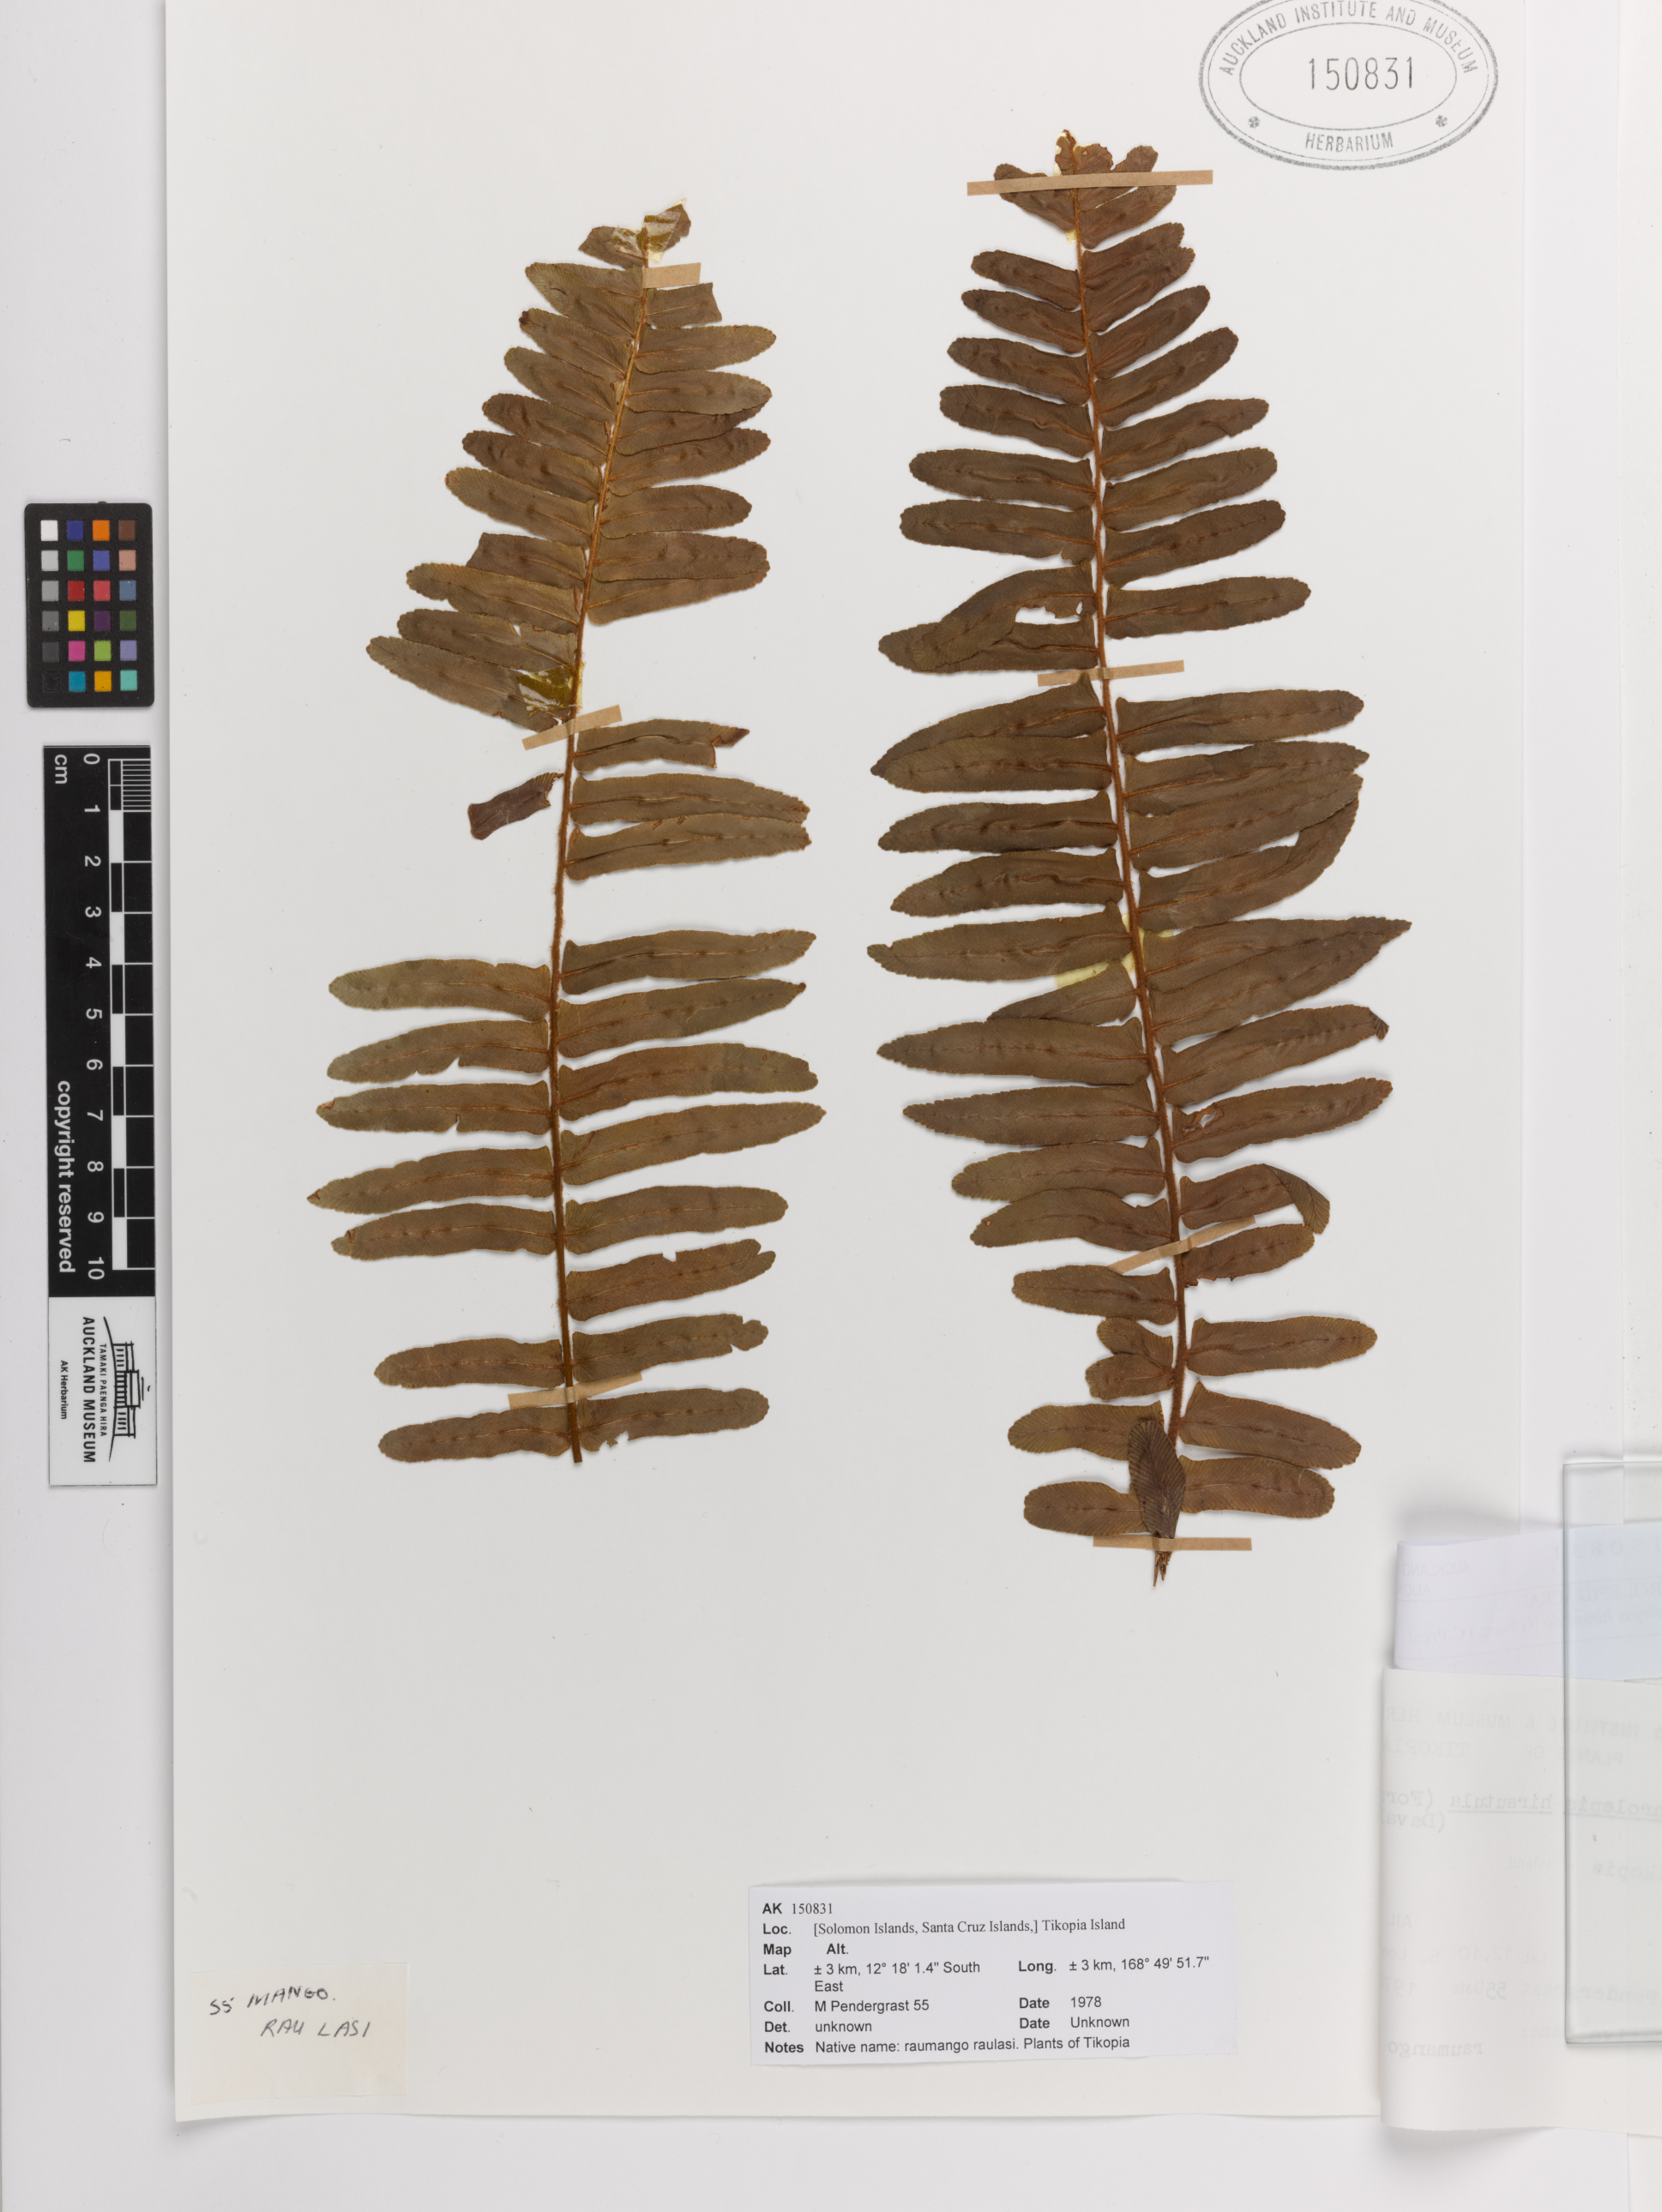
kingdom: Plantae
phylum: Tracheophyta
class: Polypodiopsida
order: Polypodiales
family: Nephrolepidaceae
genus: Nephrolepis
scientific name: Nephrolepis hirsutula
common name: Asian sword fern
